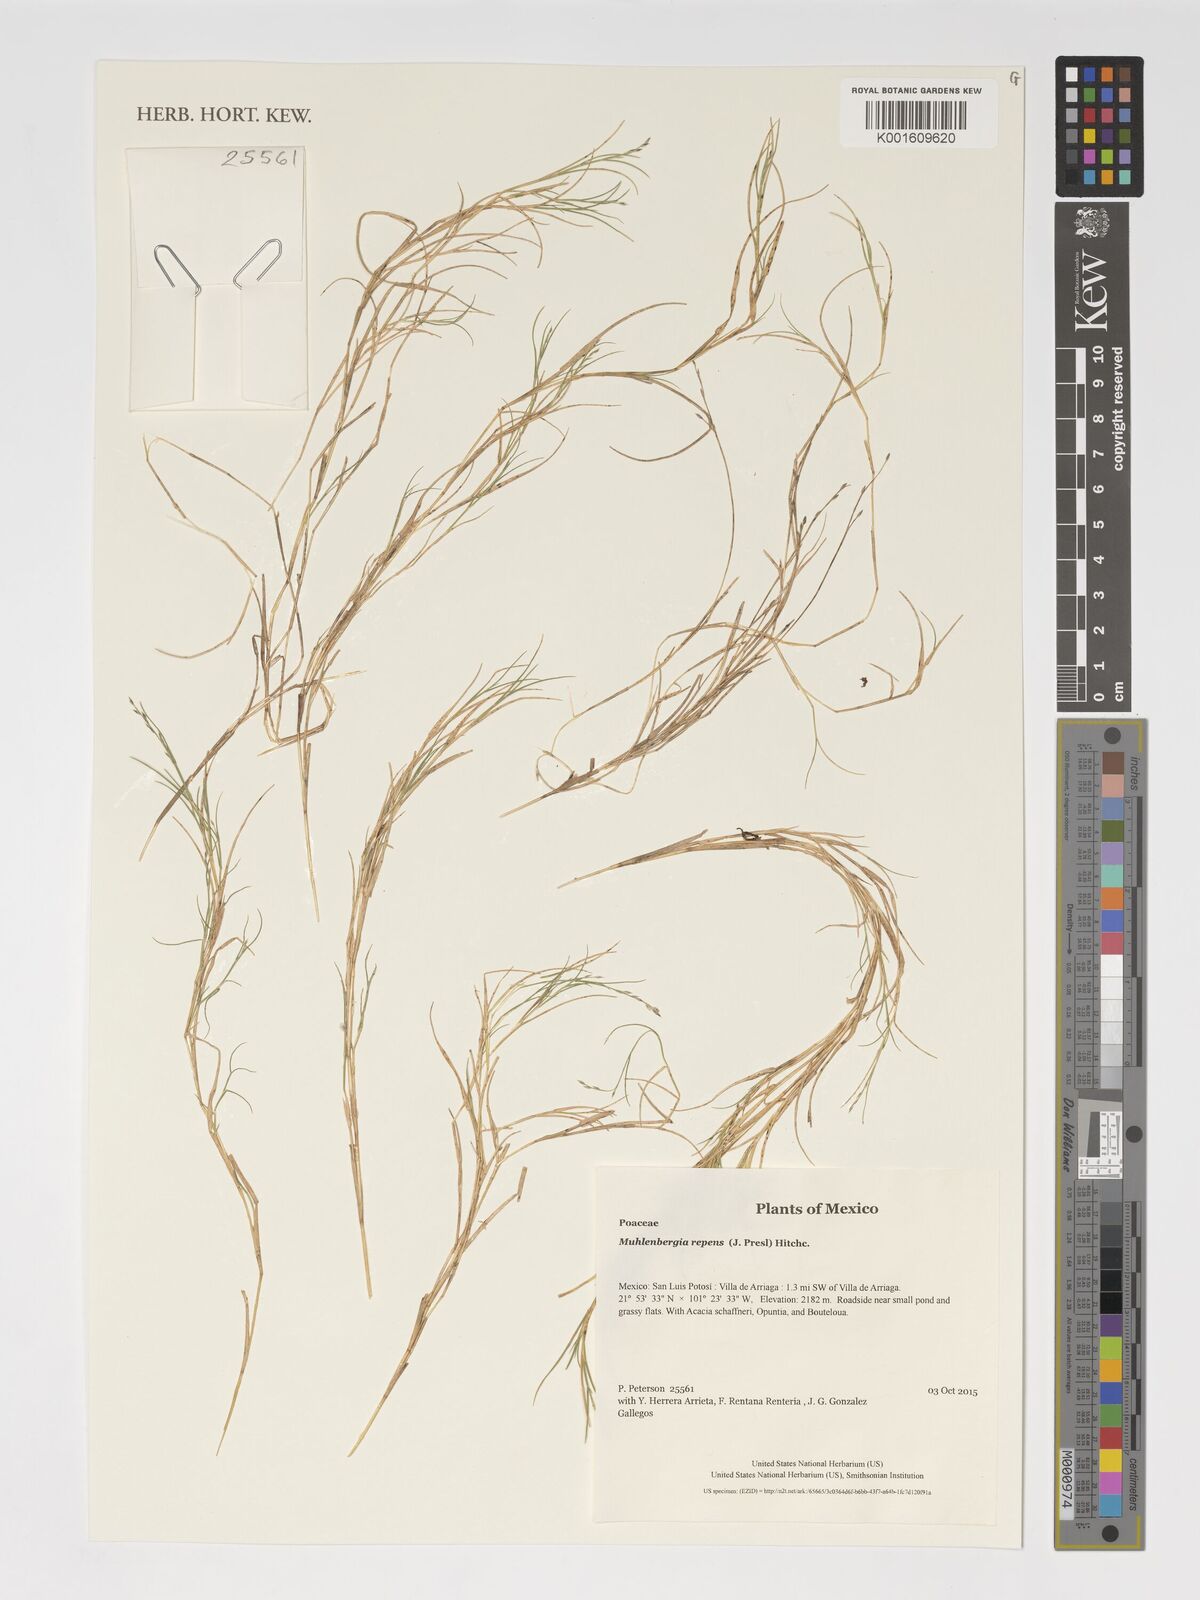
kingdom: Plantae
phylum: Tracheophyta
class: Liliopsida
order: Poales
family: Poaceae
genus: Muhlenbergia
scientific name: Muhlenbergia repens
